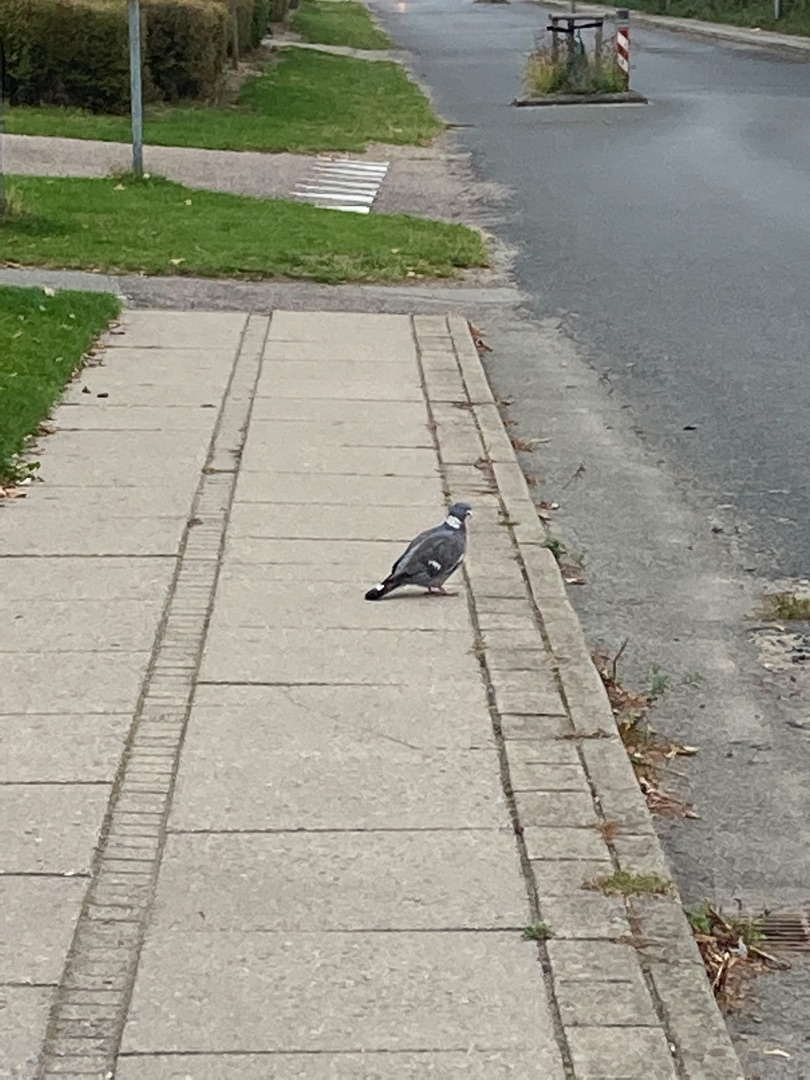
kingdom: Animalia
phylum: Chordata
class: Aves
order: Columbiformes
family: Columbidae
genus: Columba
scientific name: Columba palumbus
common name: Ringdue
